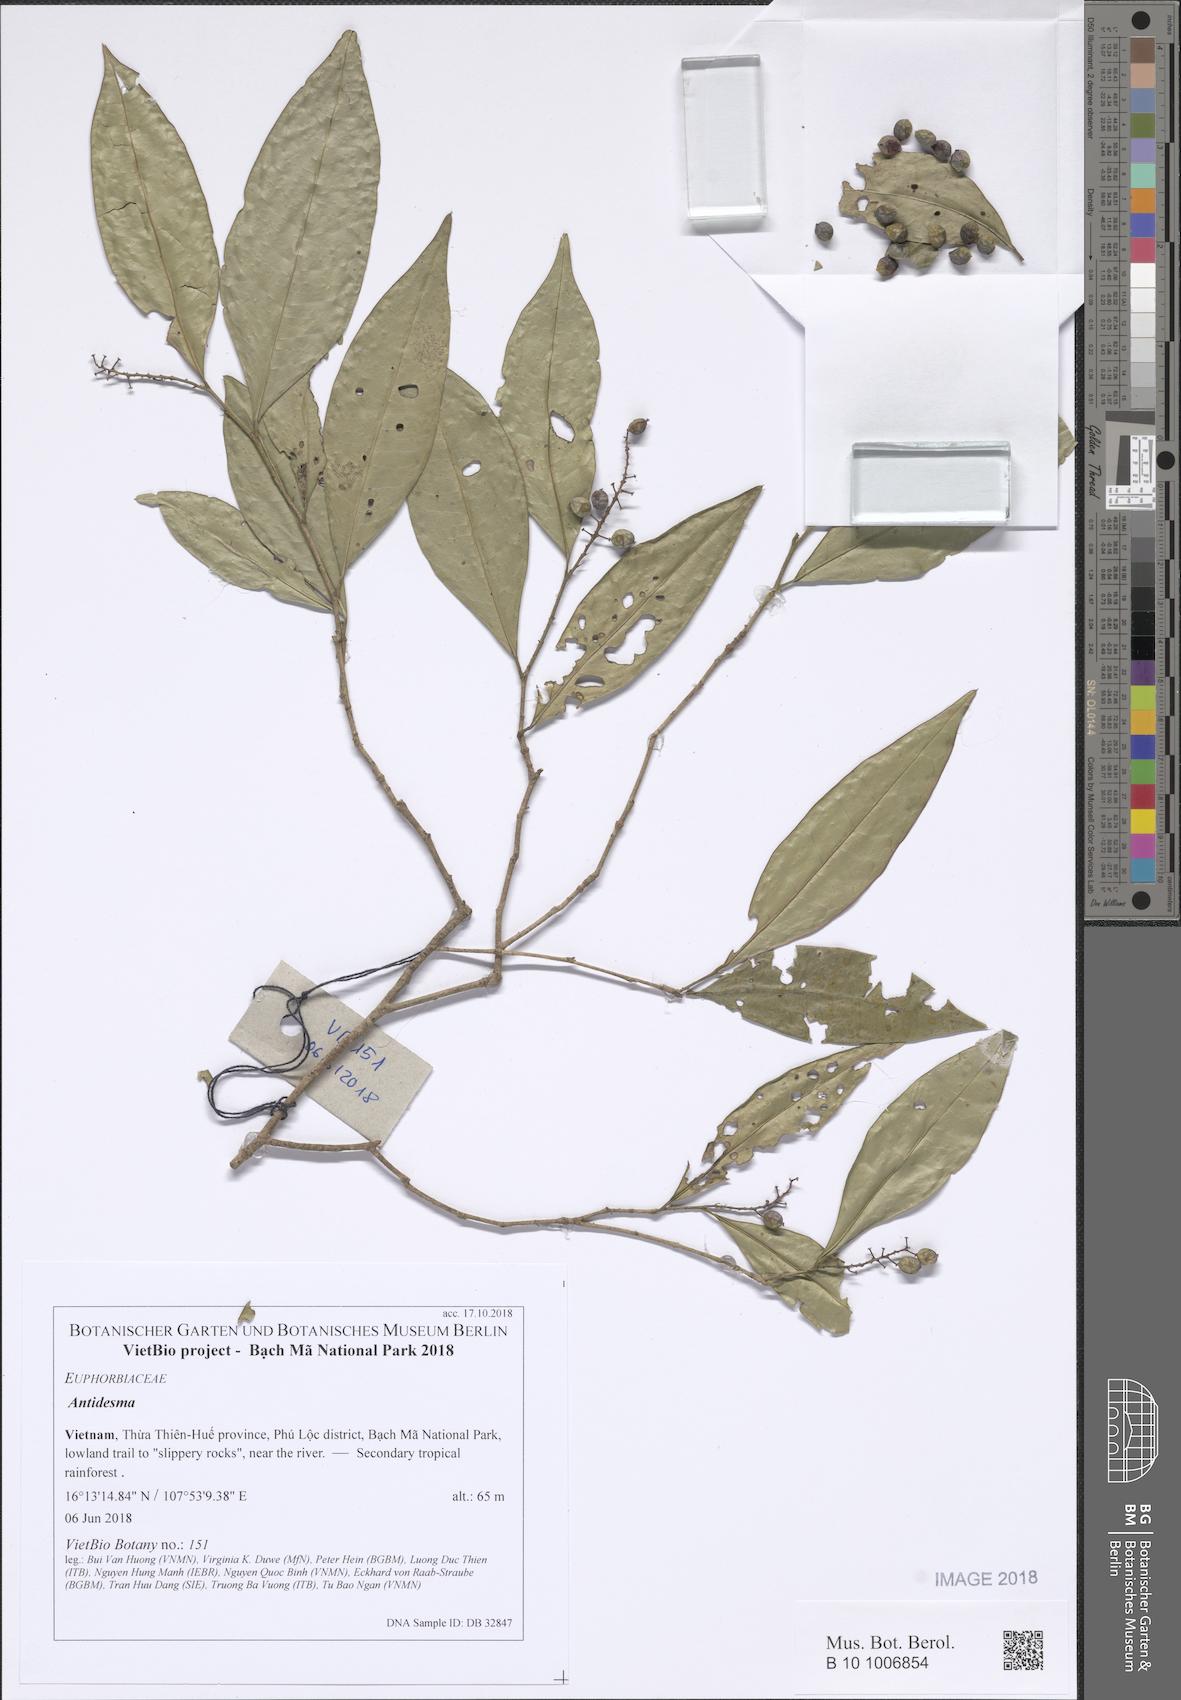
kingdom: Plantae
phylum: Tracheophyta
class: Magnoliopsida
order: Malpighiales
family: Phyllanthaceae
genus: Antidesma
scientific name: Antidesma
